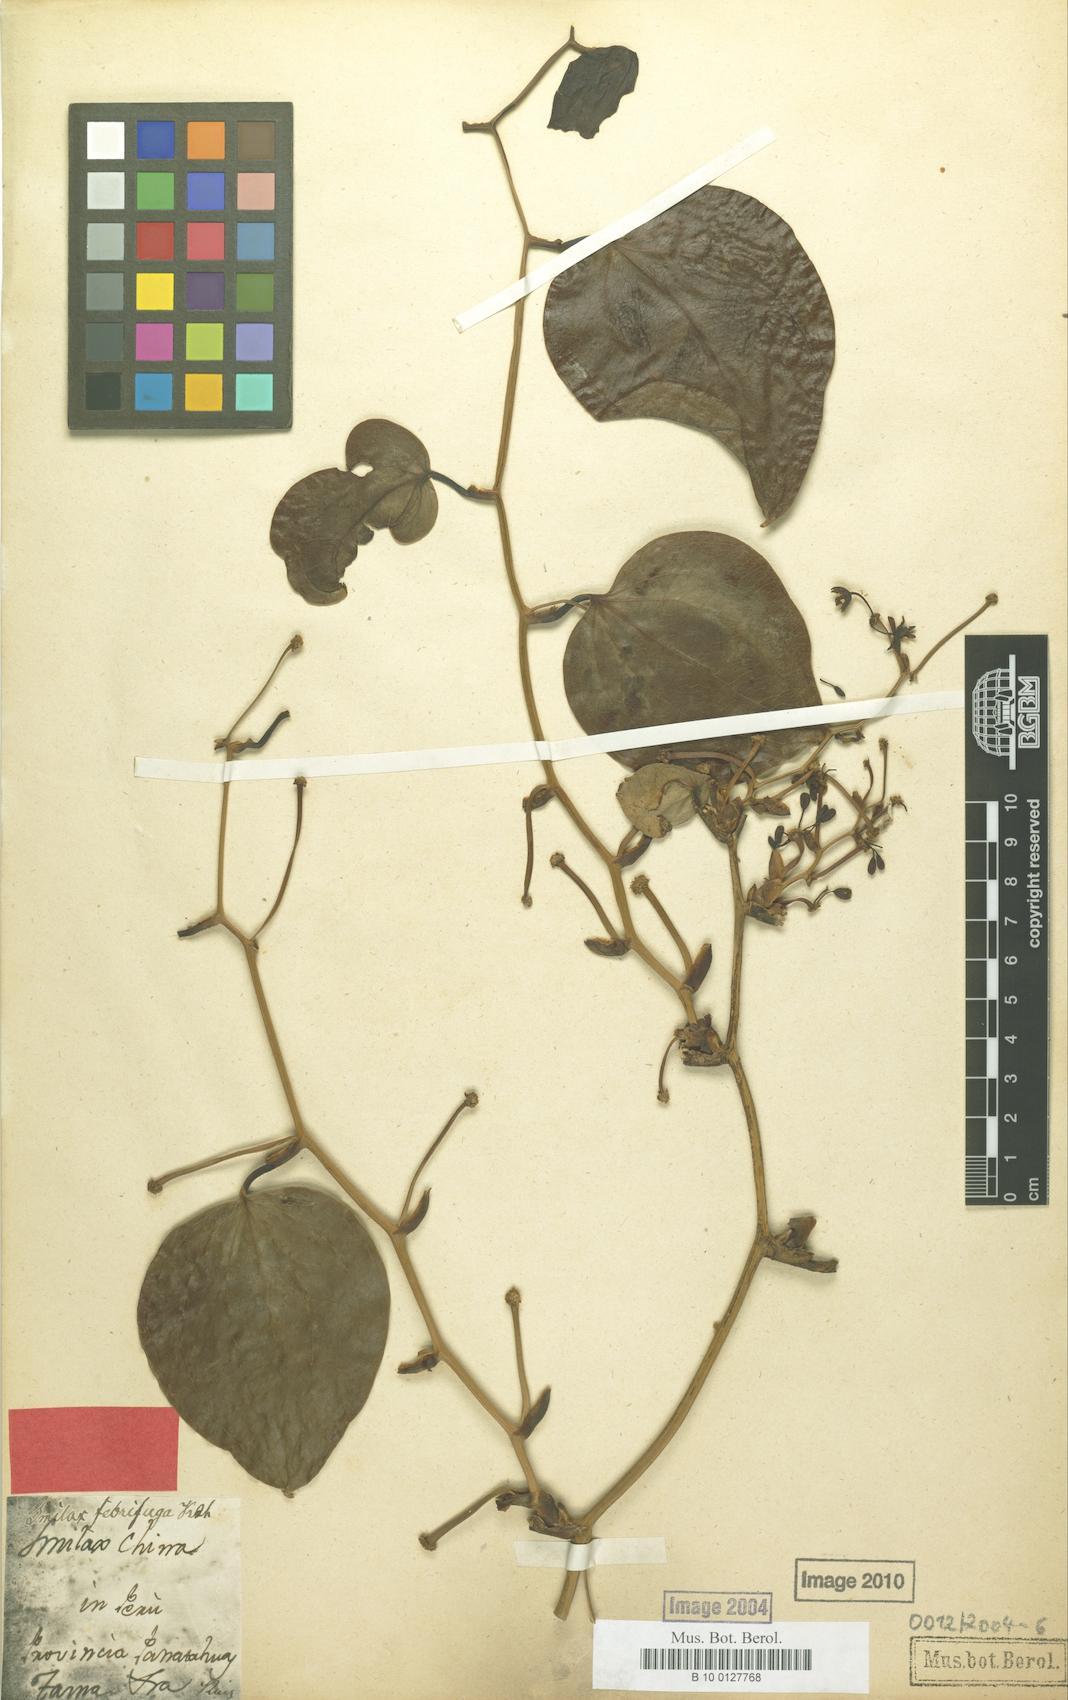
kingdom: Plantae
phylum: Tracheophyta
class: Liliopsida
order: Liliales
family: Smilacaceae
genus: Smilax
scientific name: Smilax purhampuy
